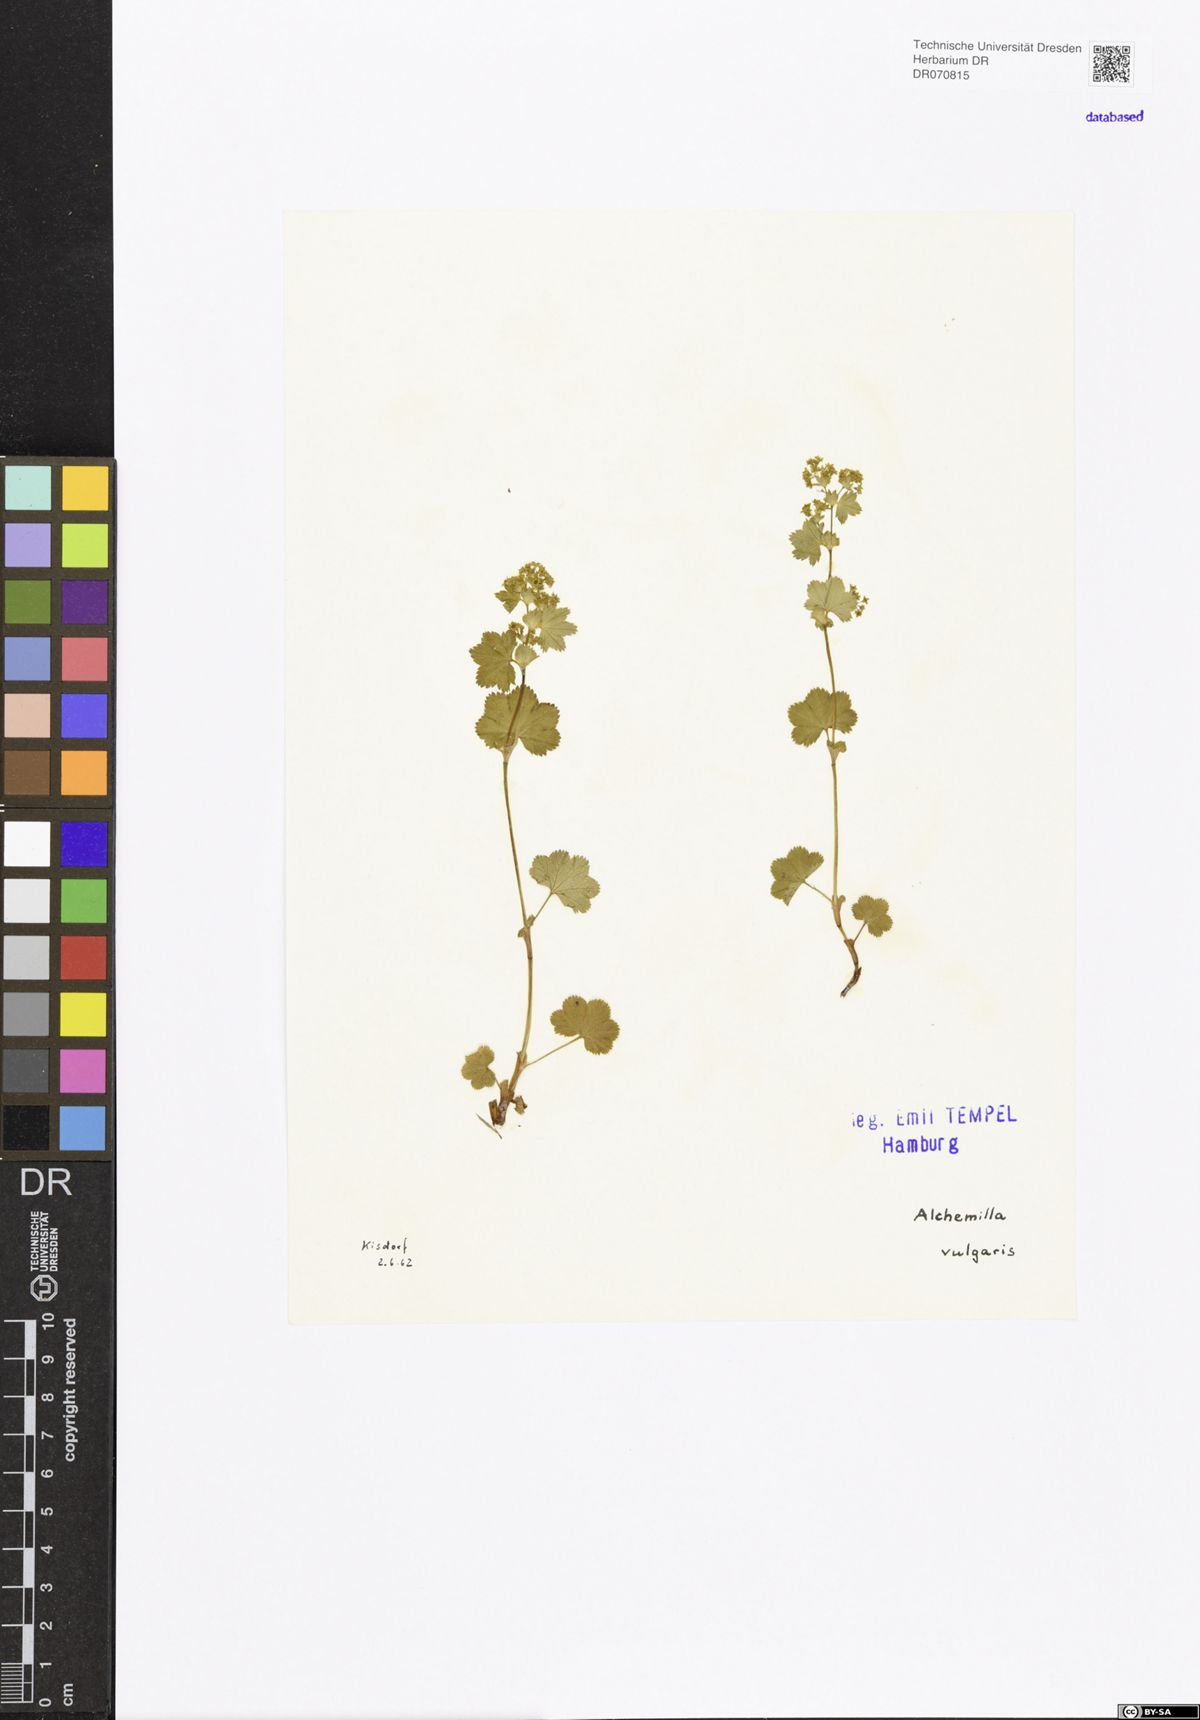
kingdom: Plantae
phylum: Tracheophyta
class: Magnoliopsida
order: Rosales
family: Rosaceae
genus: Alchemilla
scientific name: Alchemilla vulgaris
